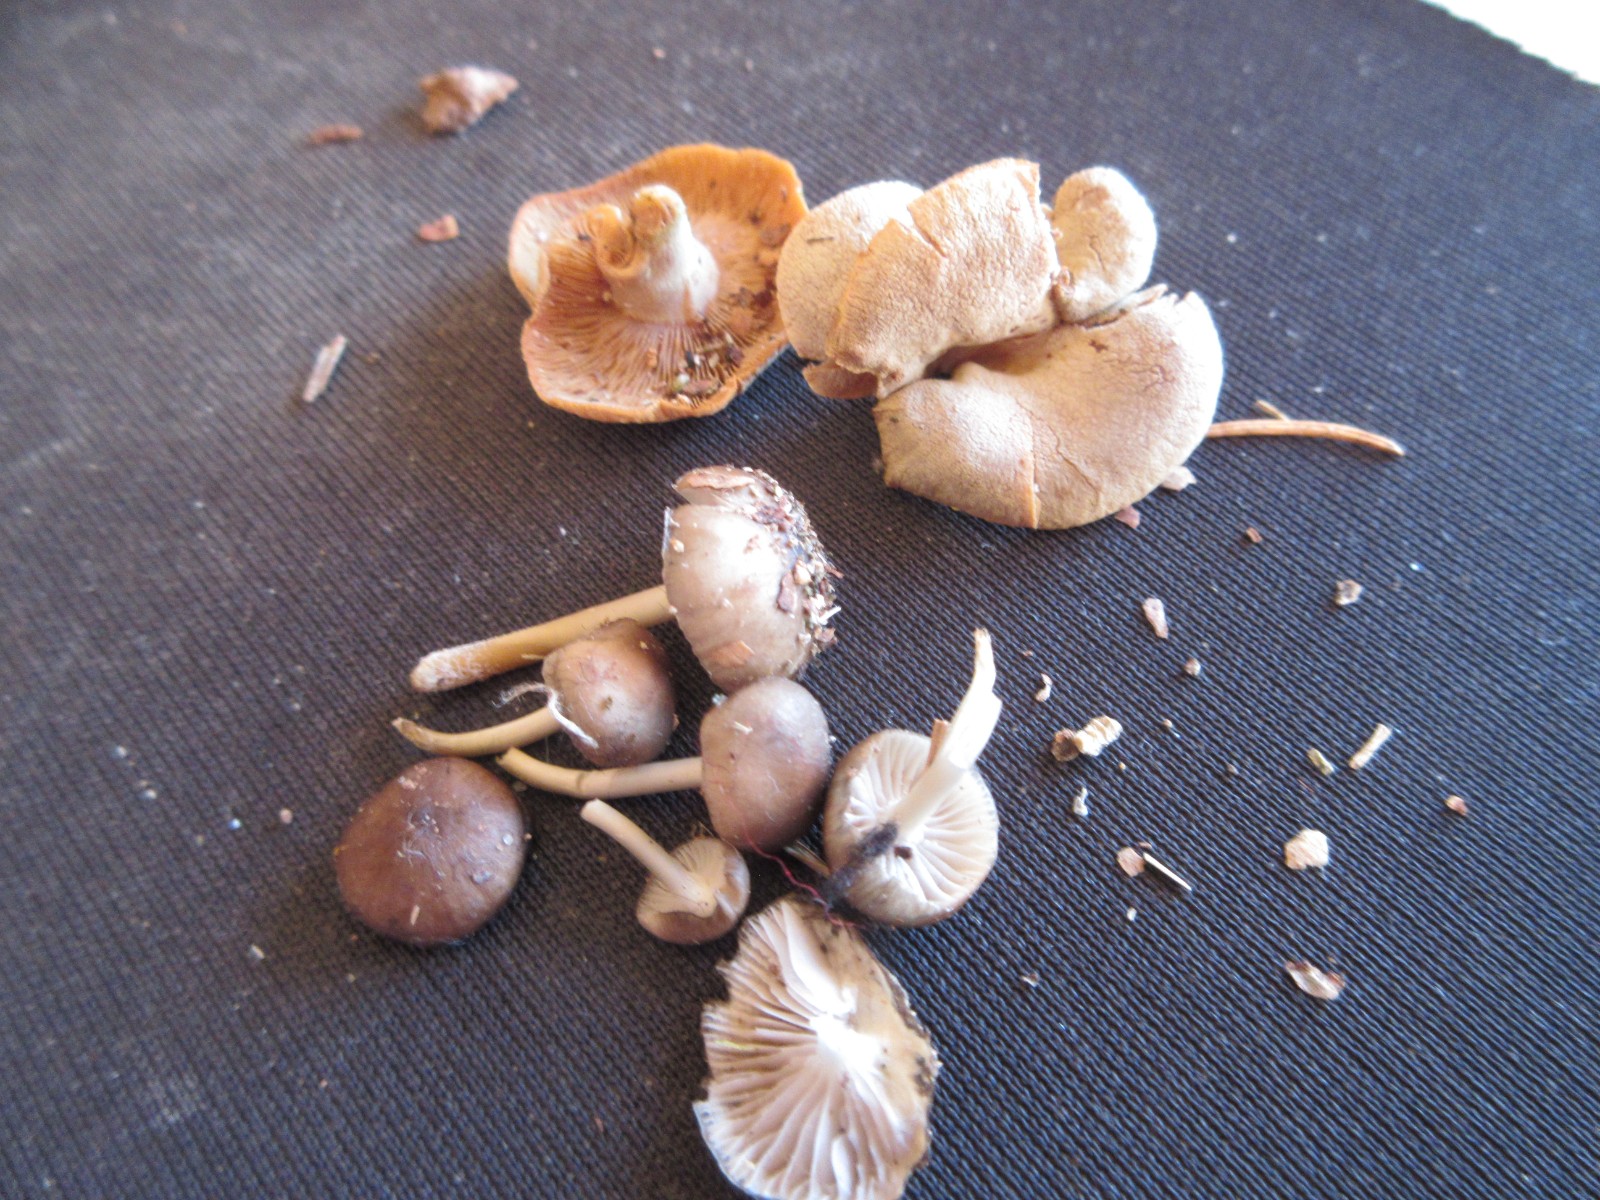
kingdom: Fungi
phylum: Basidiomycota
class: Agaricomycetes
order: Agaricales
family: Mycenaceae
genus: Panellus
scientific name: Panellus stipticus
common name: kliddet epaulethat
